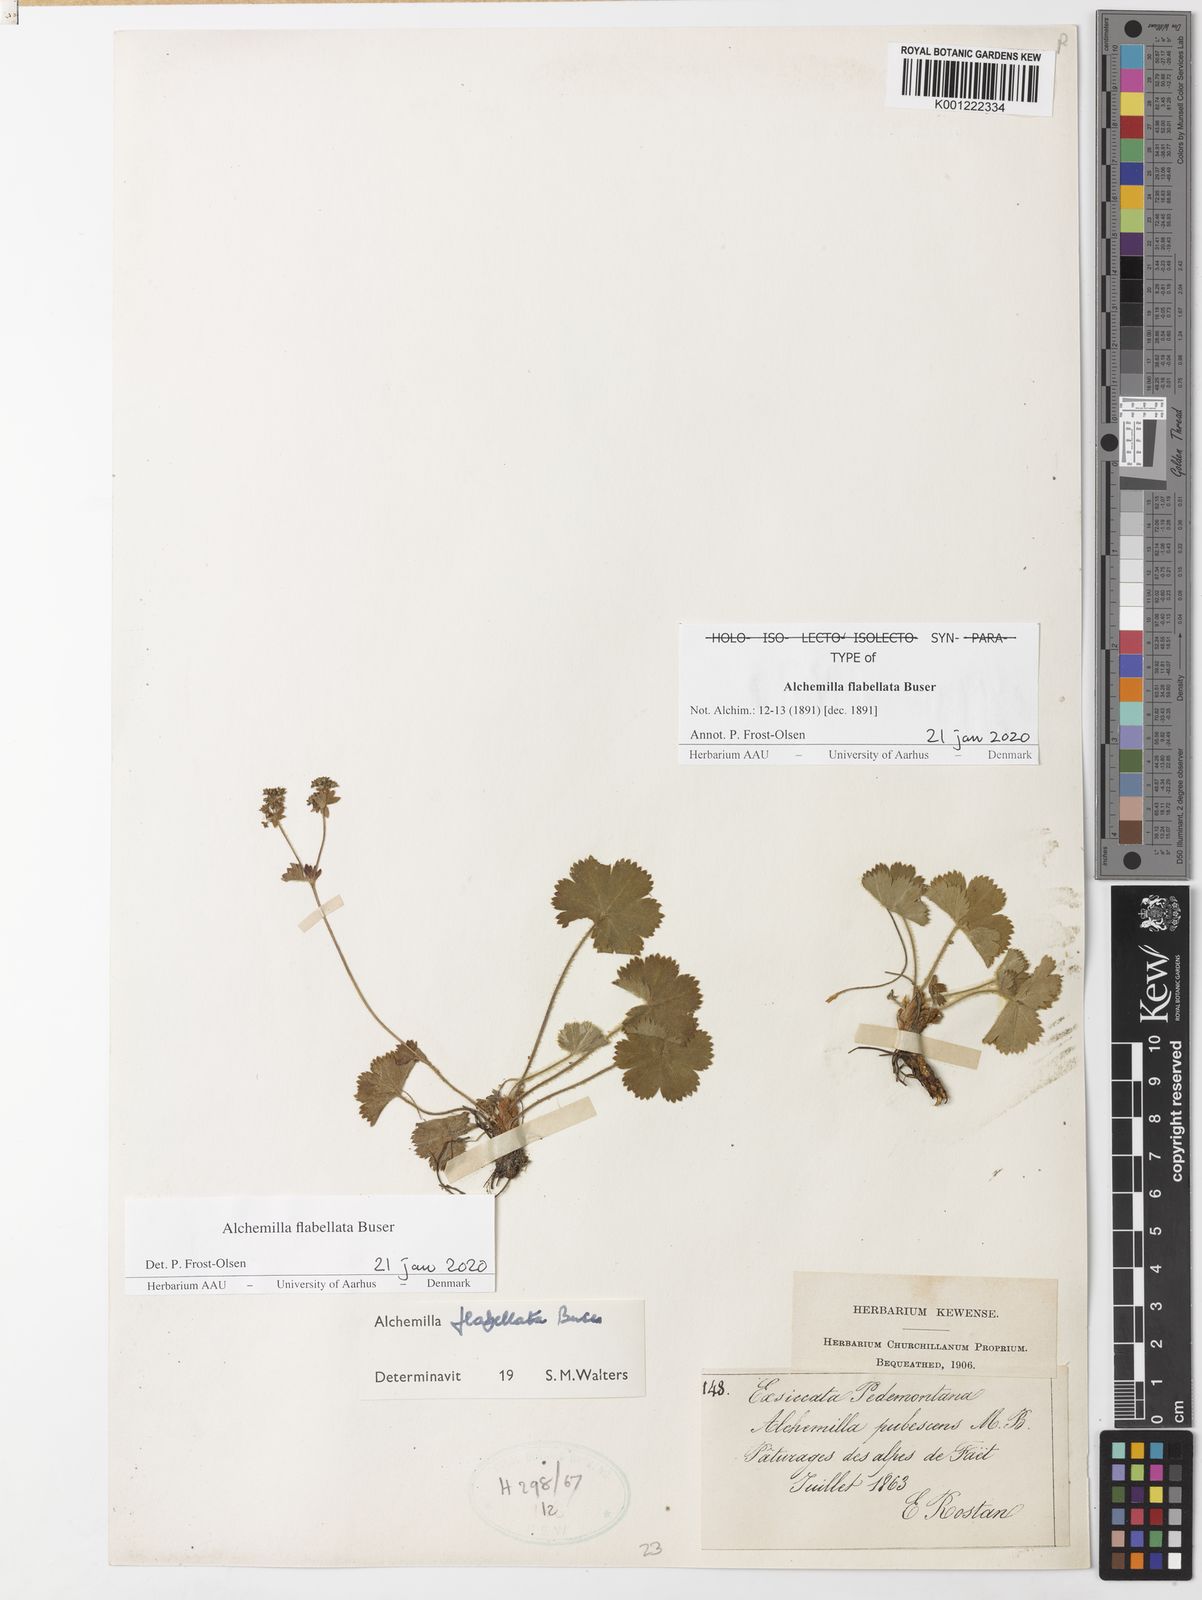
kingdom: Plantae
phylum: Tracheophyta
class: Magnoliopsida
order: Rosales
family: Rosaceae
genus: Alchemilla
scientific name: Alchemilla flabellata
